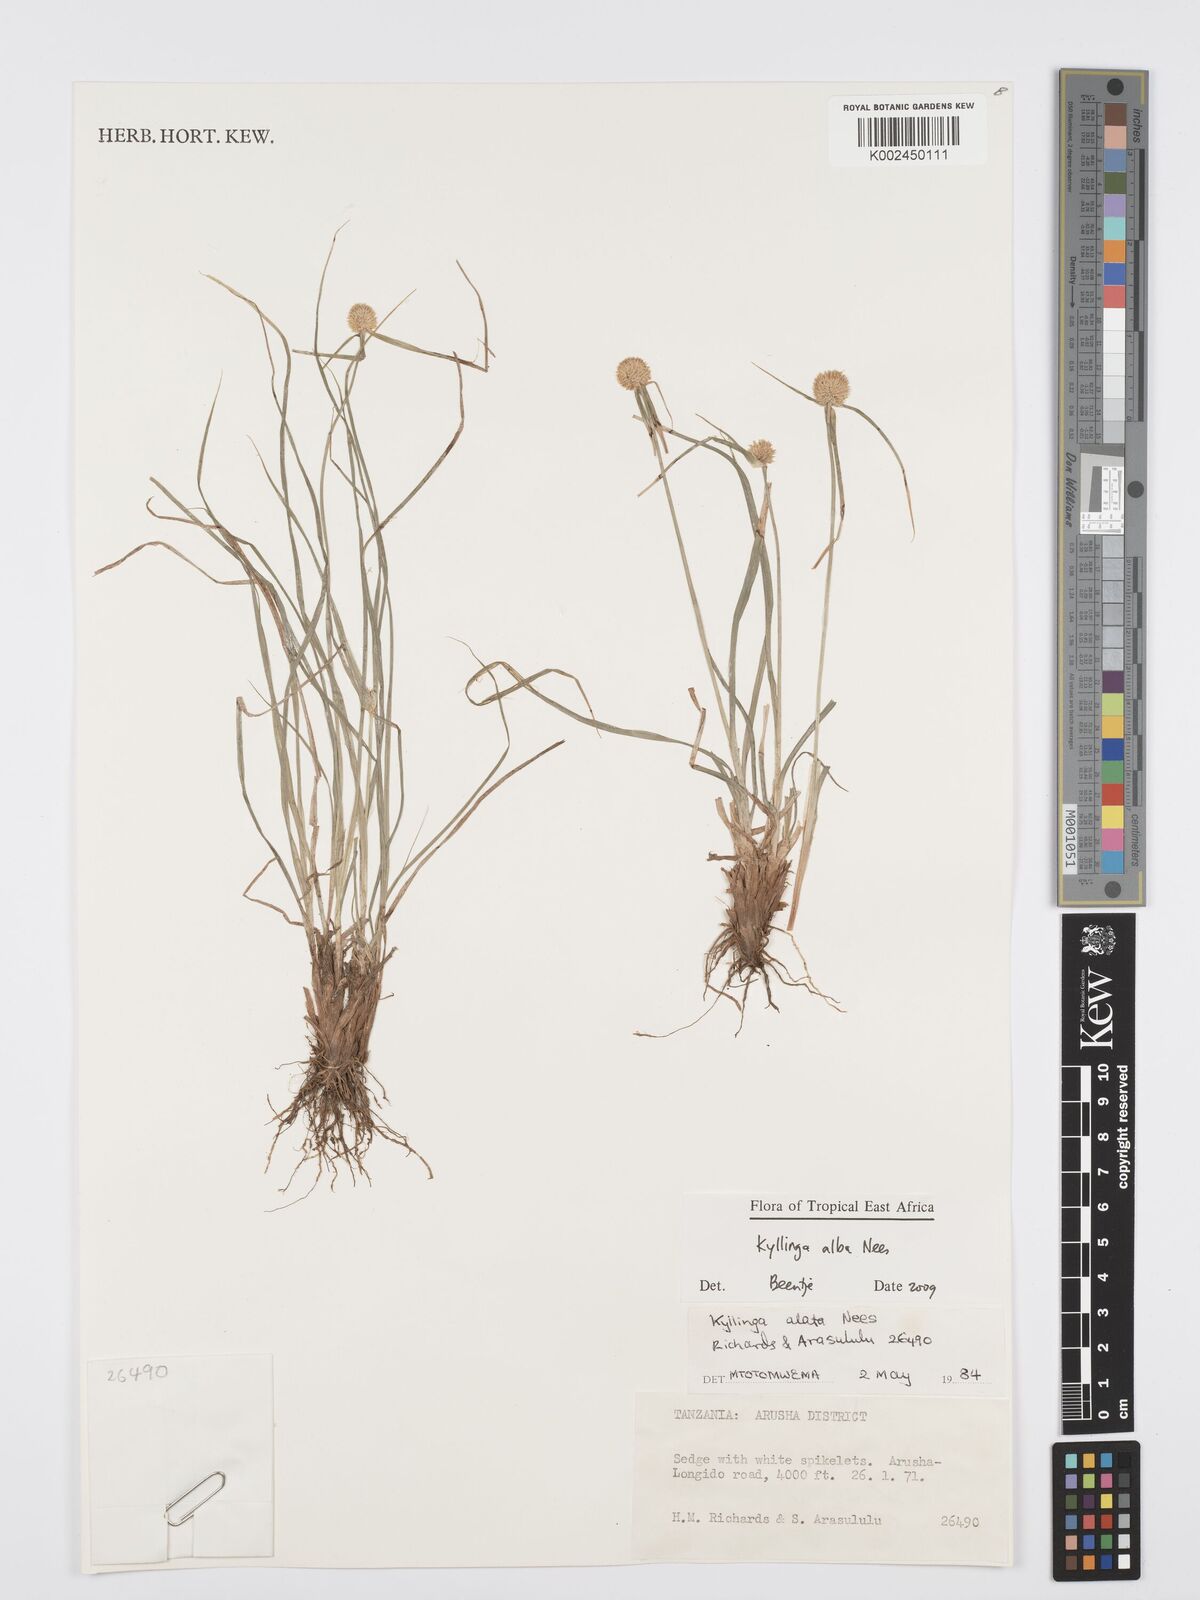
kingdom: Plantae
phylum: Tracheophyta
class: Liliopsida
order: Poales
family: Cyperaceae
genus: Cyperus
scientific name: Cyperus
